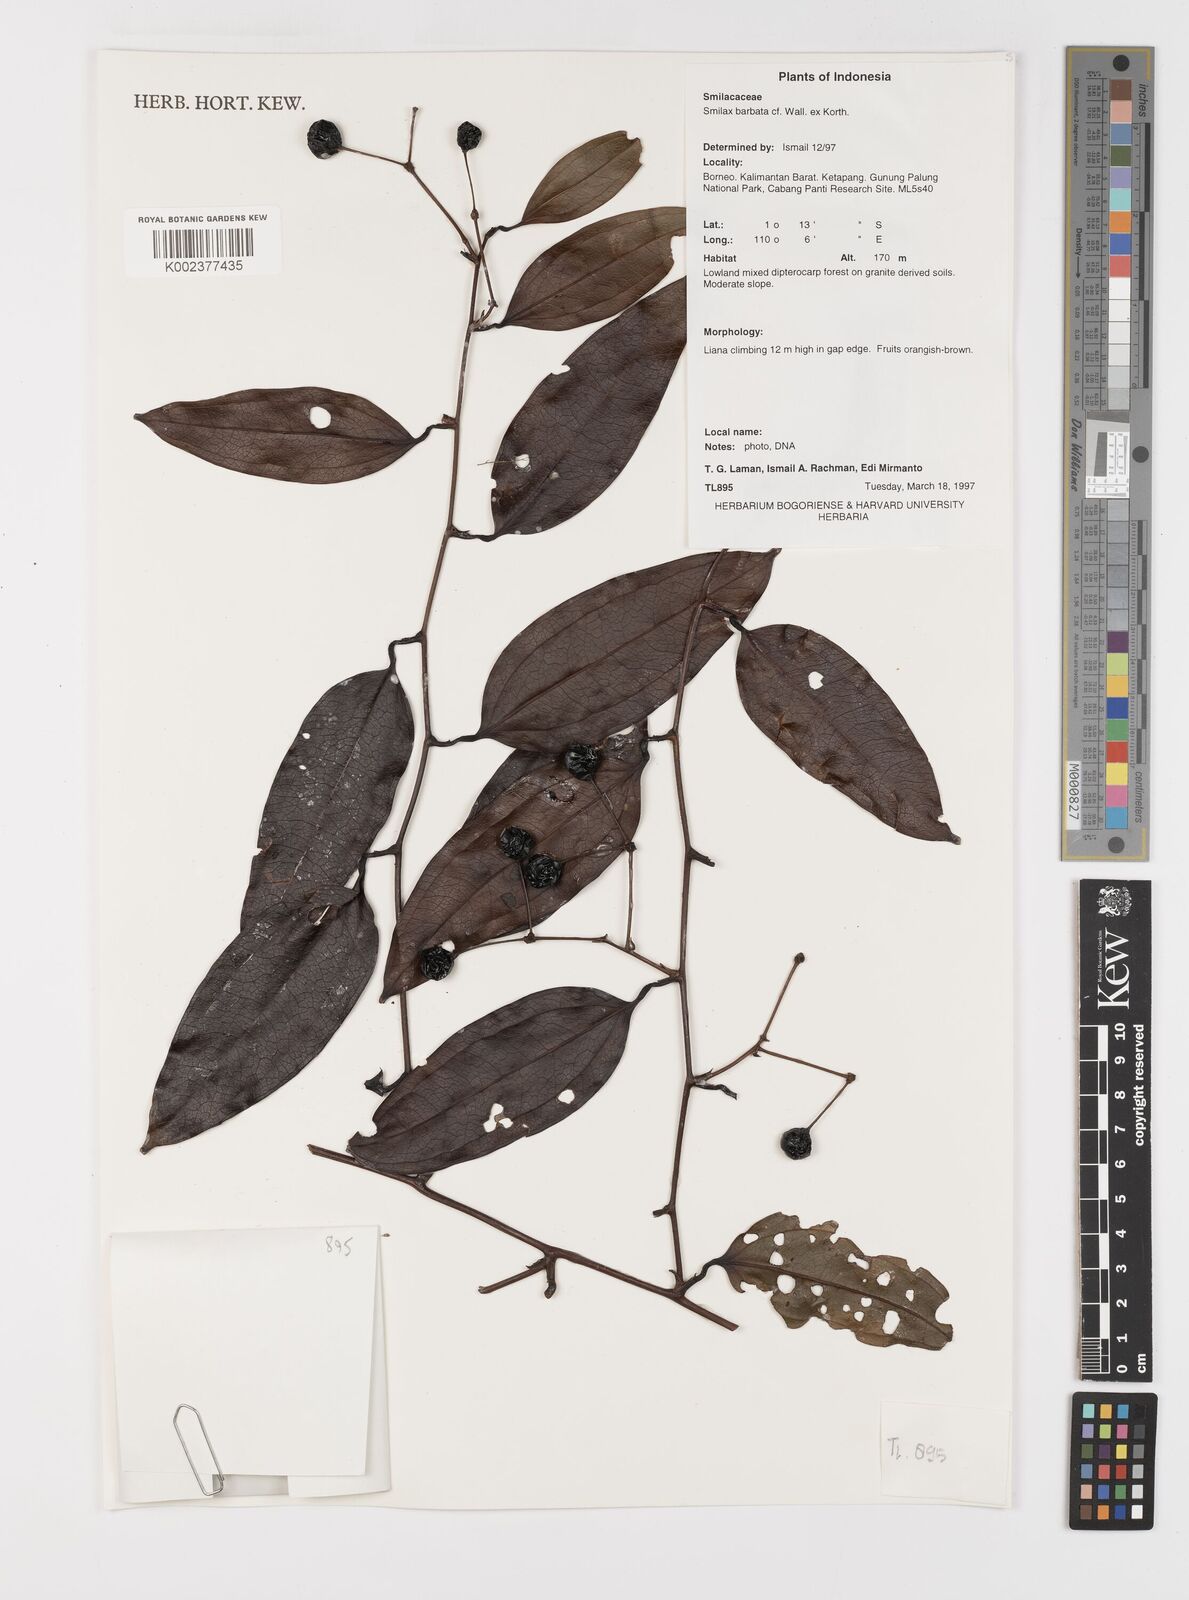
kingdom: Plantae
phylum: Tracheophyta
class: Liliopsida
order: Liliales
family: Smilacaceae
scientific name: Smilacaceae
